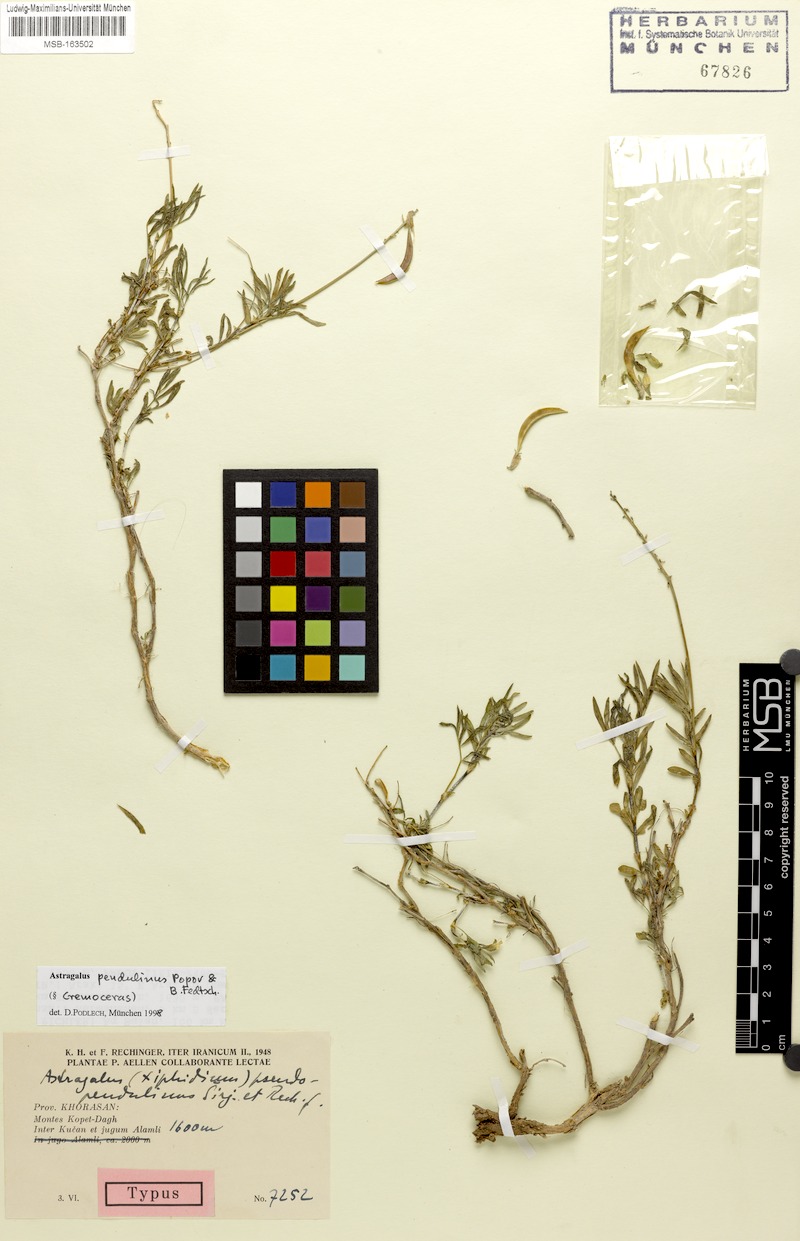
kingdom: Plantae
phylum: Tracheophyta
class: Magnoliopsida
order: Fabales
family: Fabaceae
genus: Astragalus
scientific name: Astragalus pendulinus
